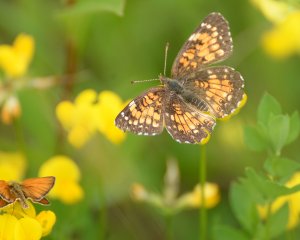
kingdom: Animalia
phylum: Arthropoda
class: Insecta
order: Lepidoptera
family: Nymphalidae
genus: Chlosyne
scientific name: Chlosyne harrisii
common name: Harris's Checkerspot
